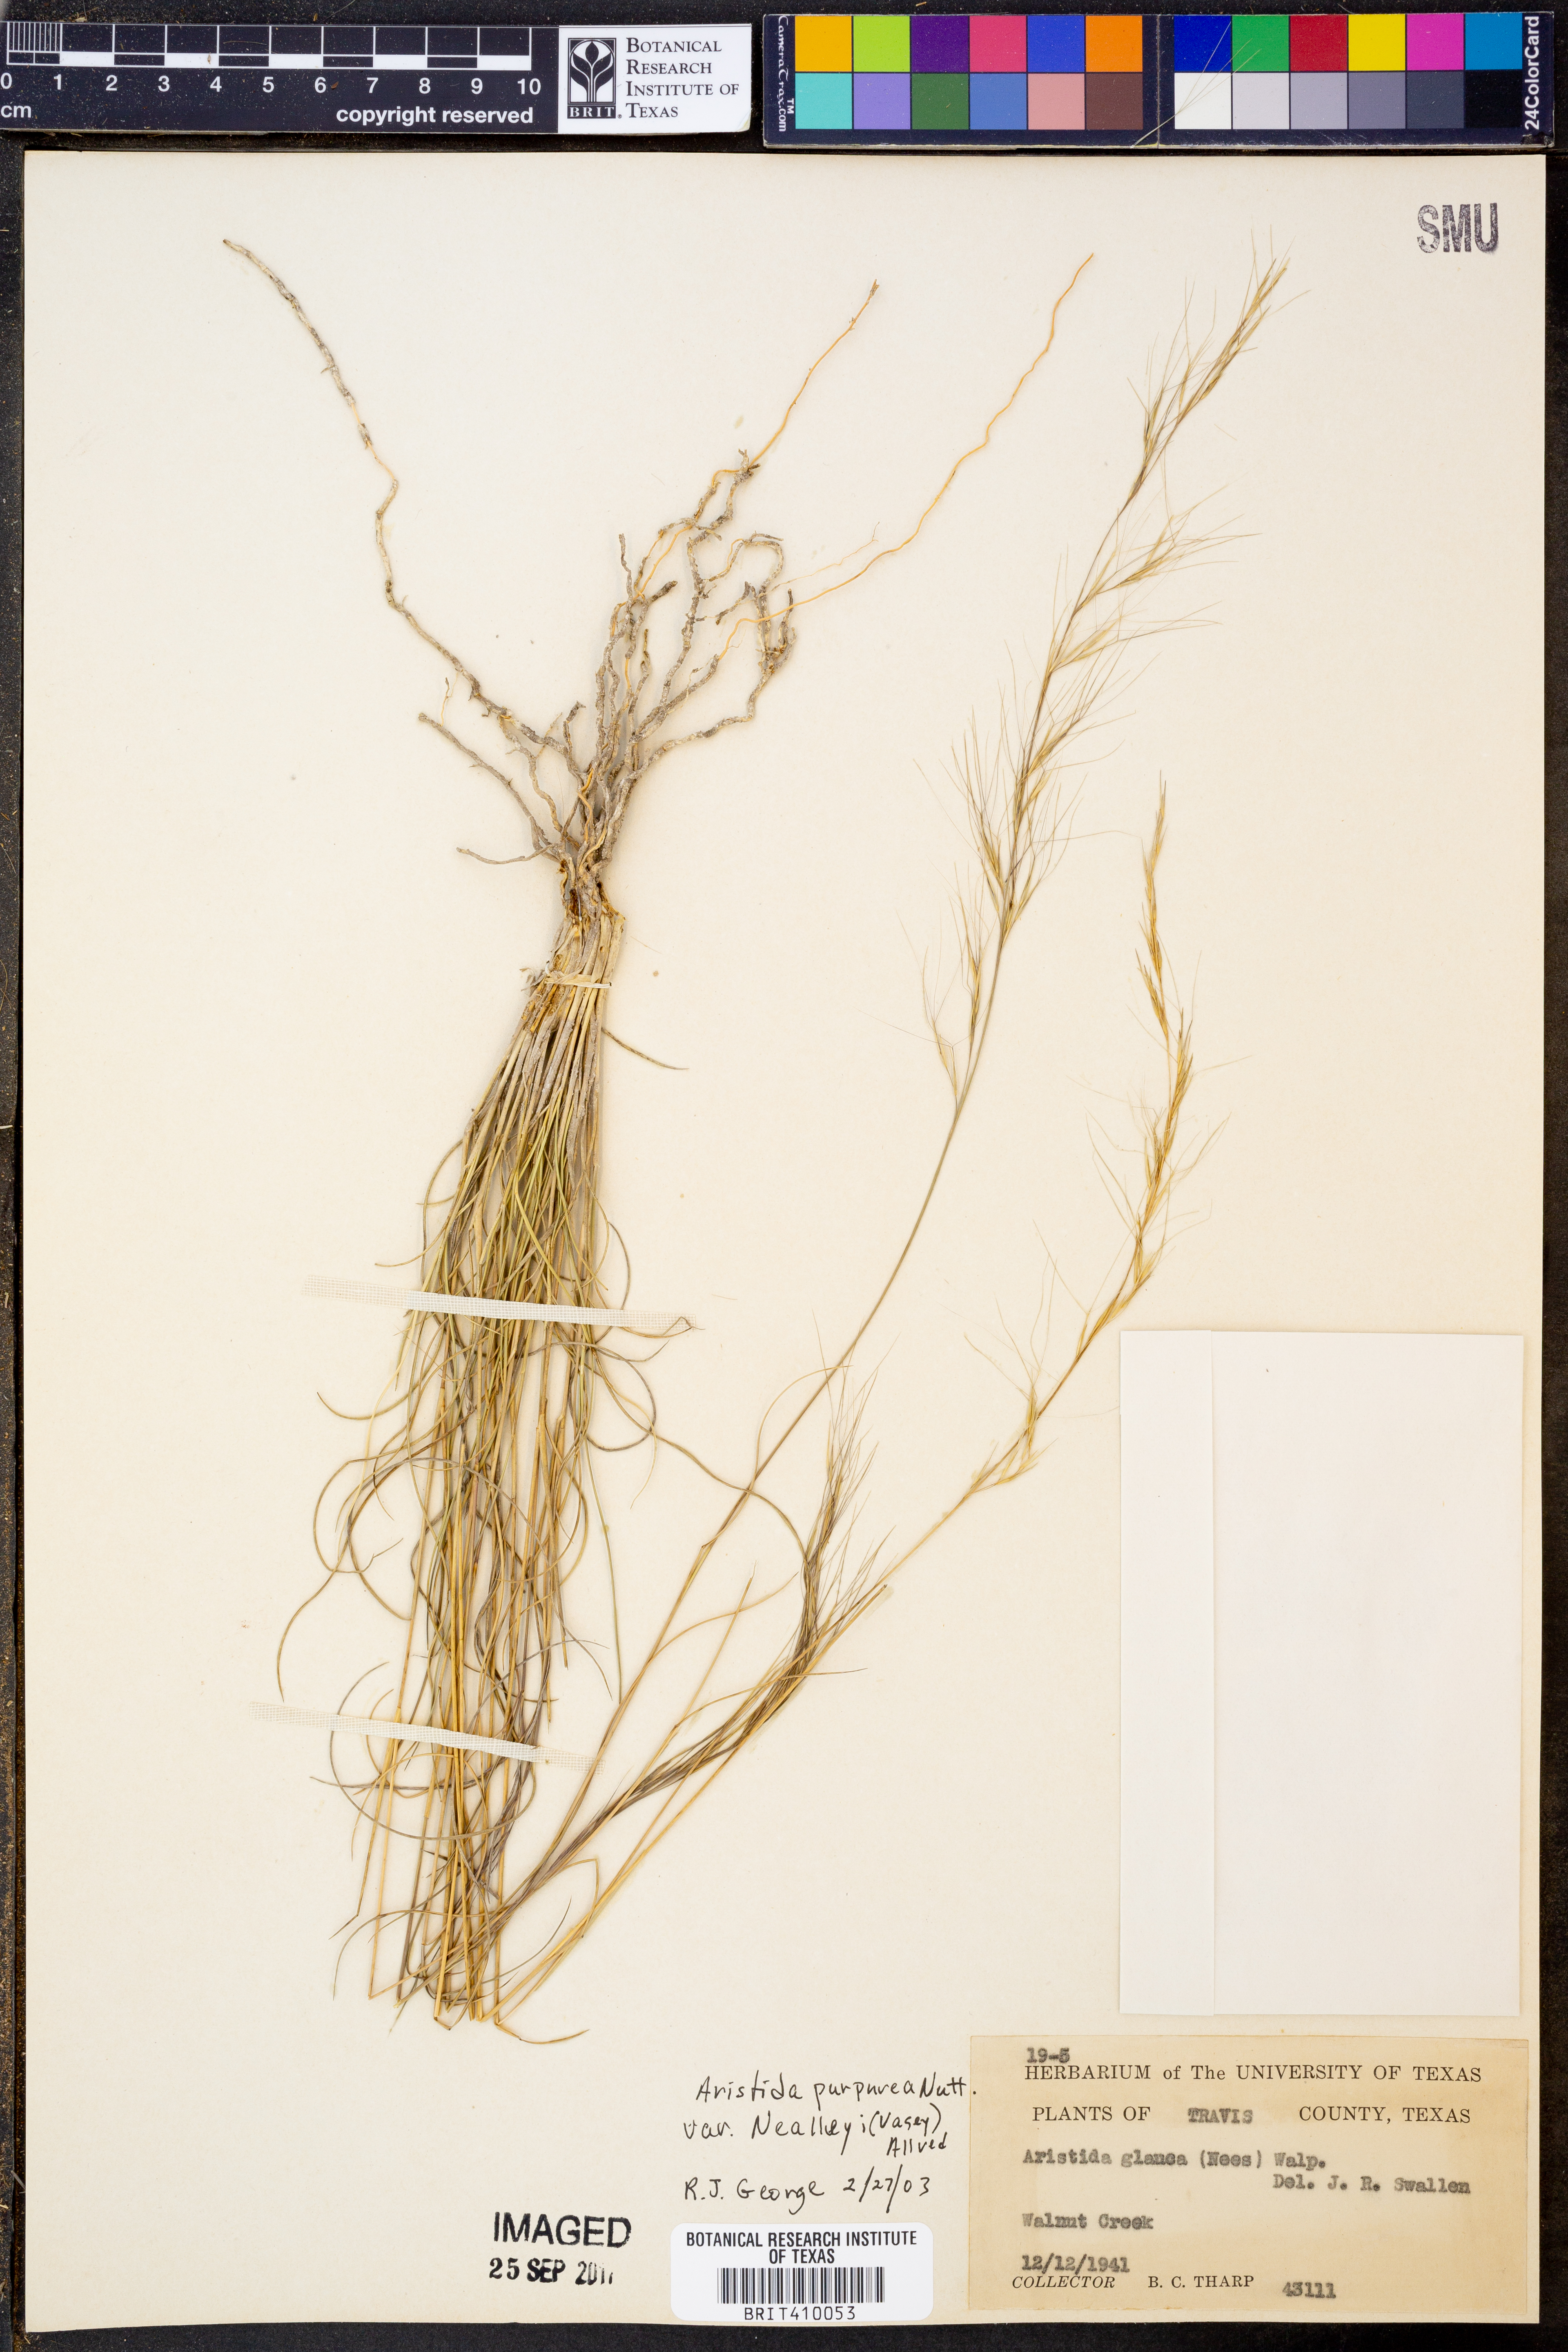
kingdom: Plantae
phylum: Tracheophyta
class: Liliopsida
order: Poales
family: Poaceae
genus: Aristida
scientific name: Aristida glauca
